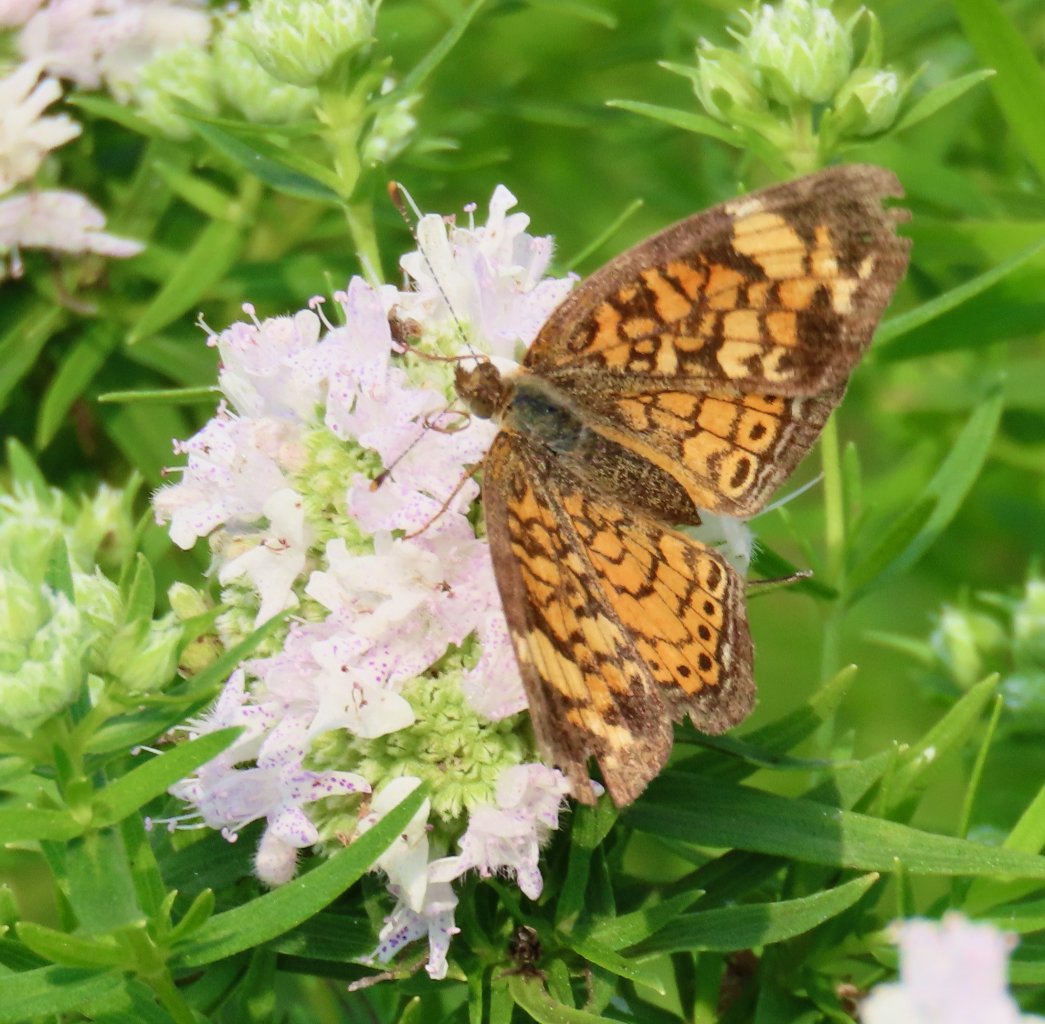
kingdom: Animalia
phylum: Arthropoda
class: Insecta
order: Lepidoptera
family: Nymphalidae
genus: Phyciodes
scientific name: Phyciodes tharos
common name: Pearl Crescent
